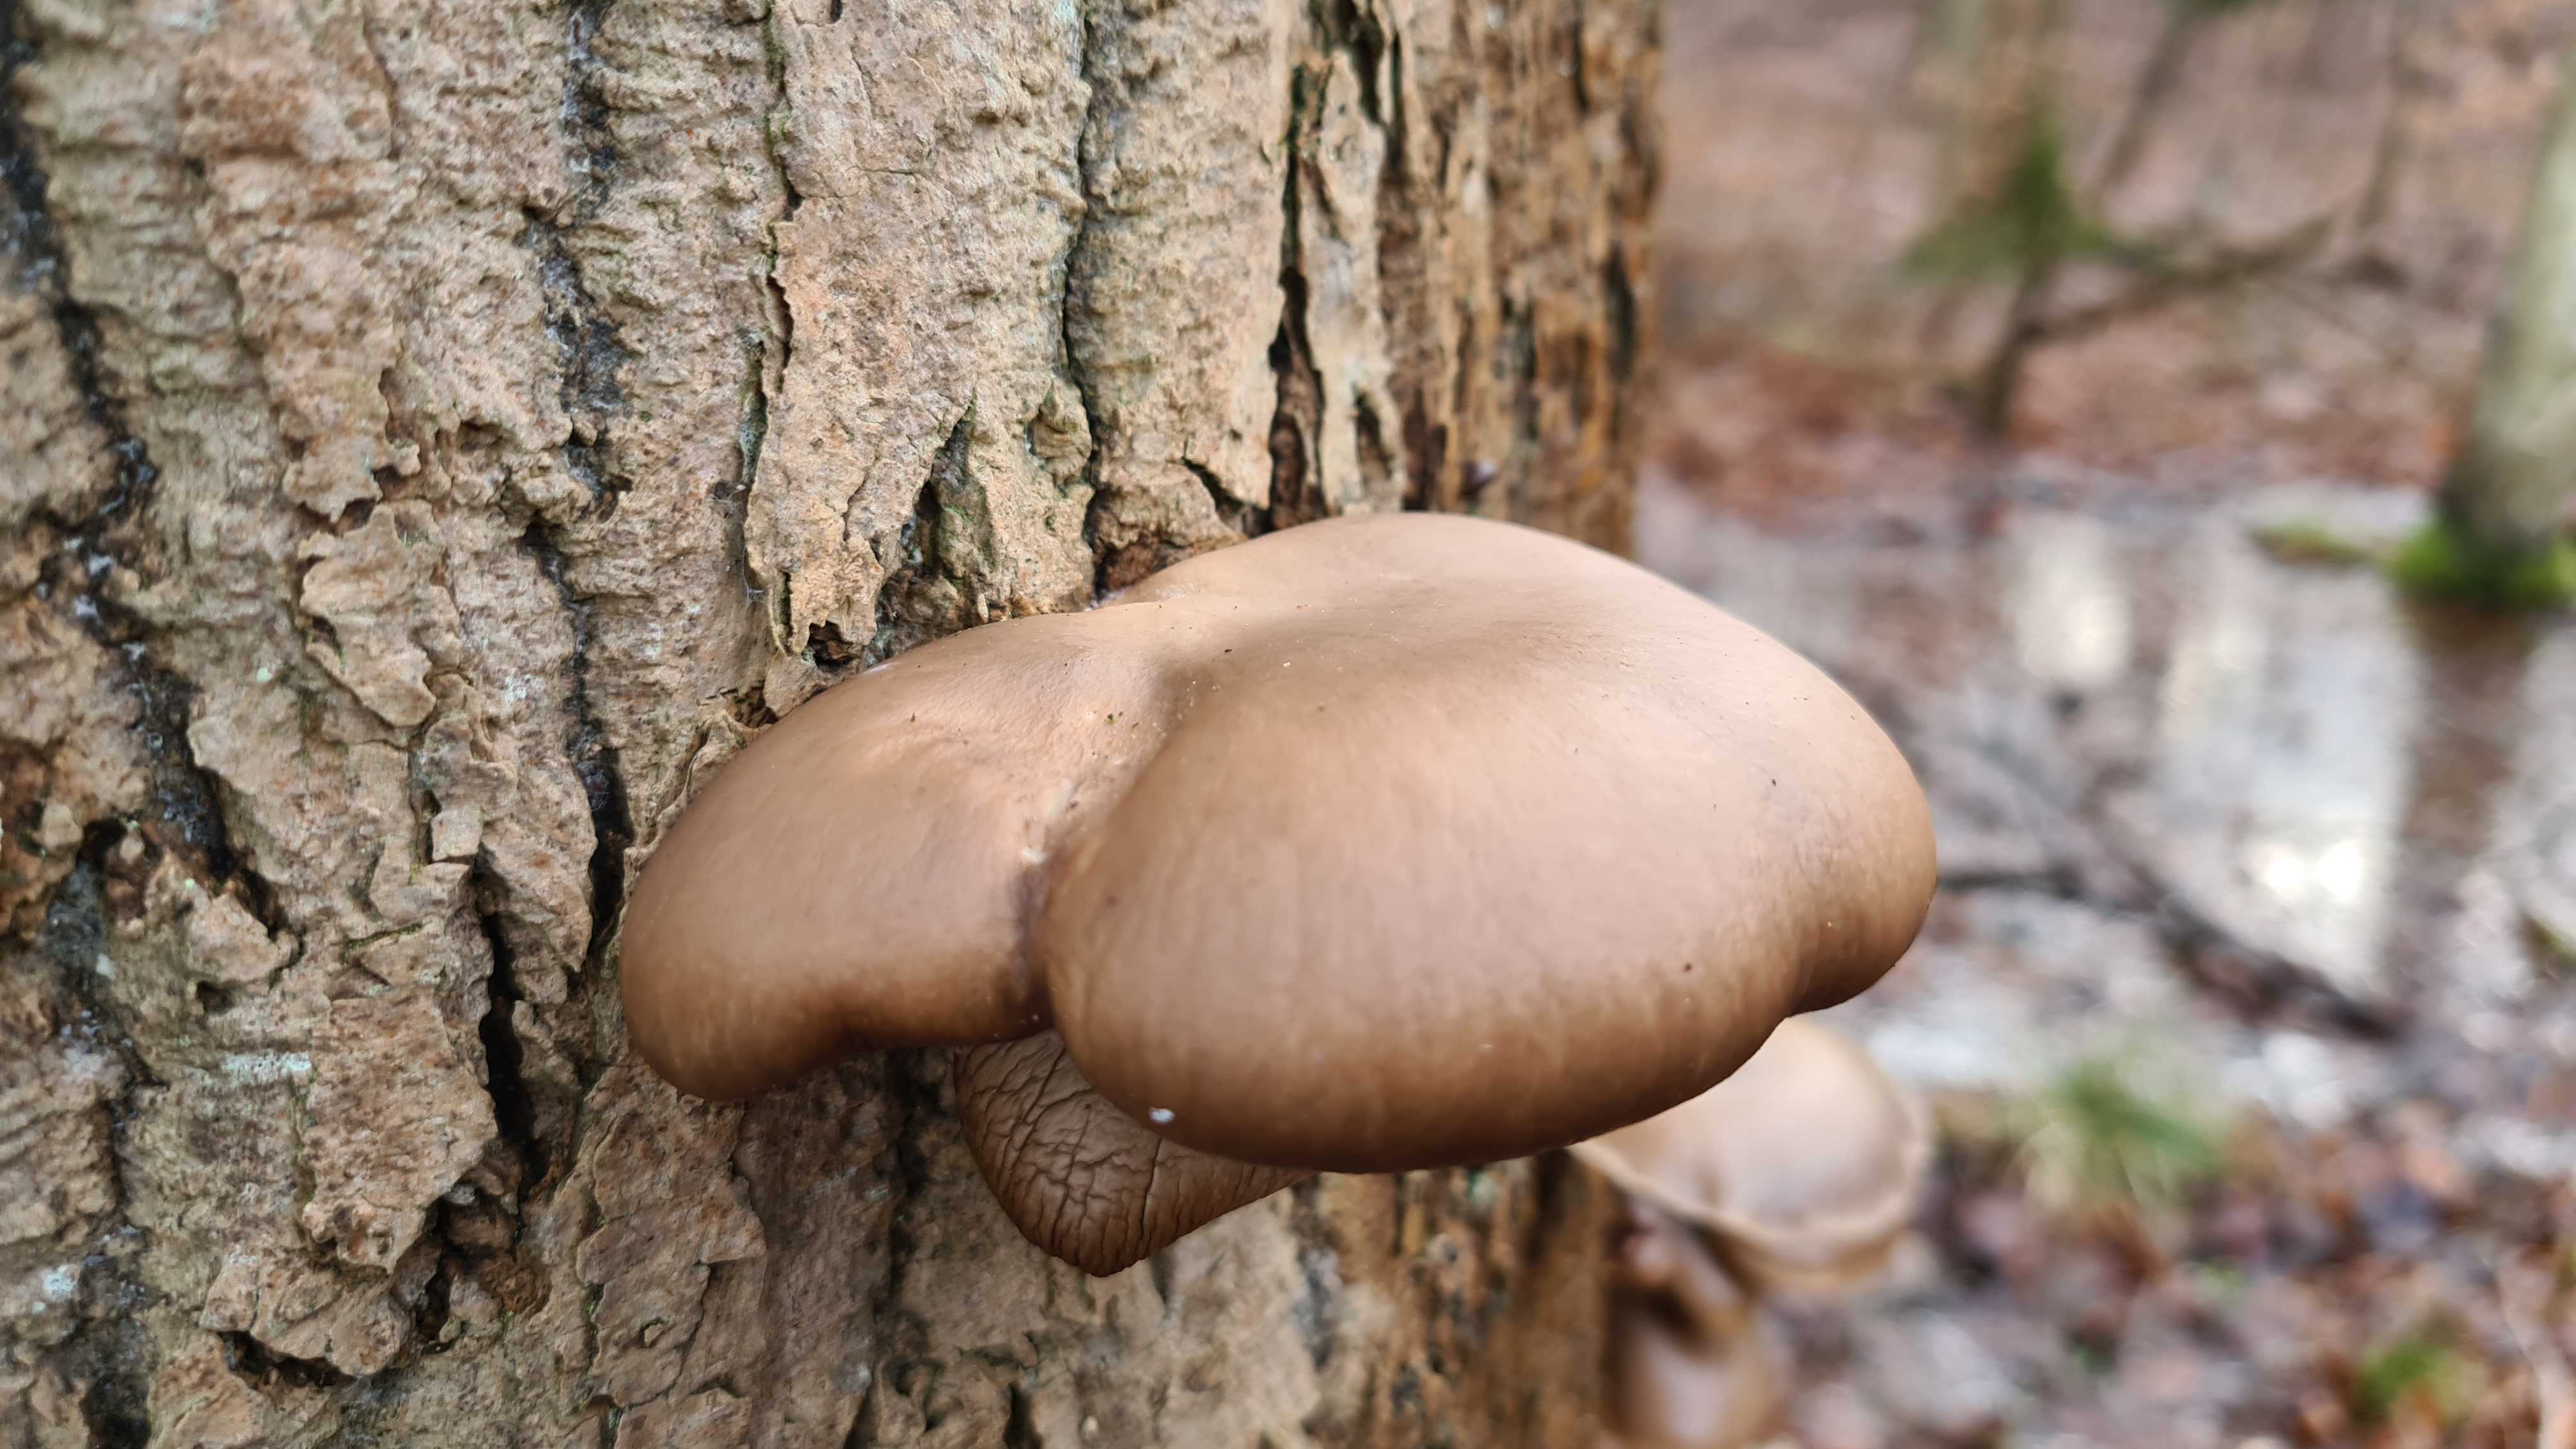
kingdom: Fungi
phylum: Basidiomycota
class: Agaricomycetes
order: Agaricales
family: Pleurotaceae
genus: Pleurotus
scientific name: Pleurotus ostreatus
